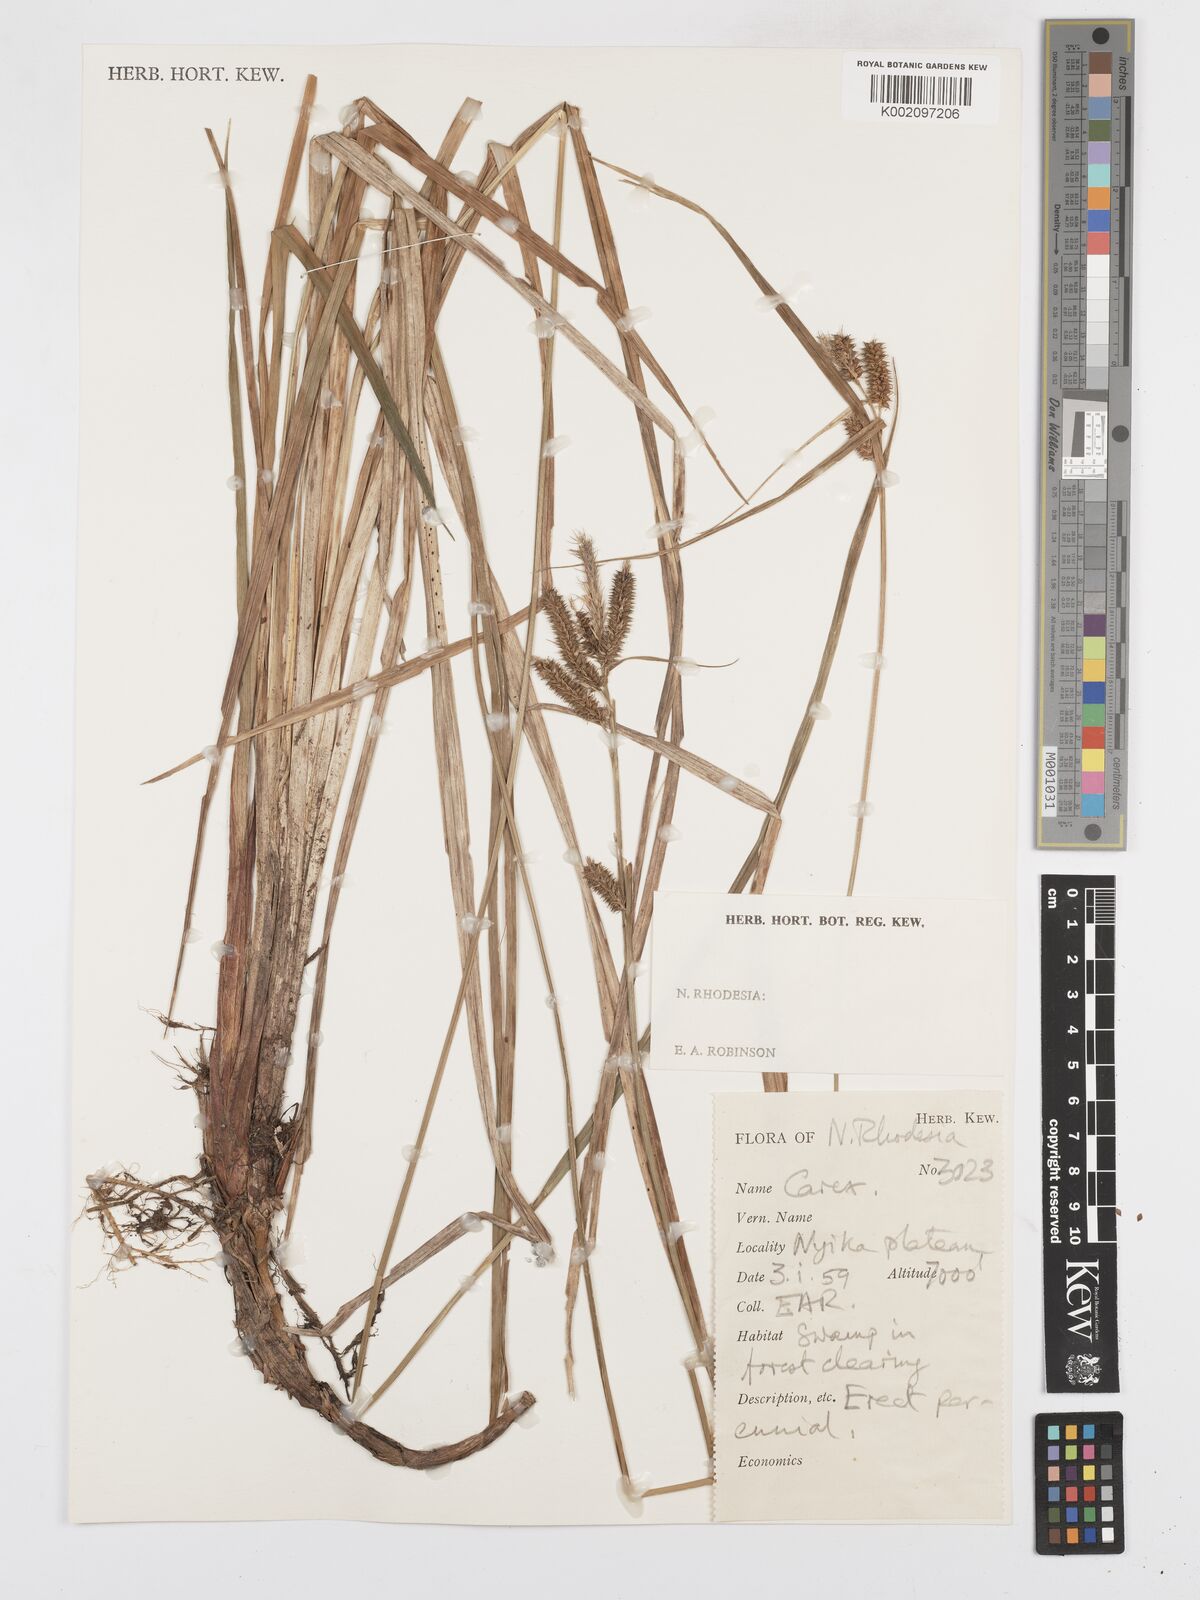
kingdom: Plantae
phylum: Tracheophyta
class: Liliopsida
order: Poales
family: Cyperaceae
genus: Carex
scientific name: Carex
